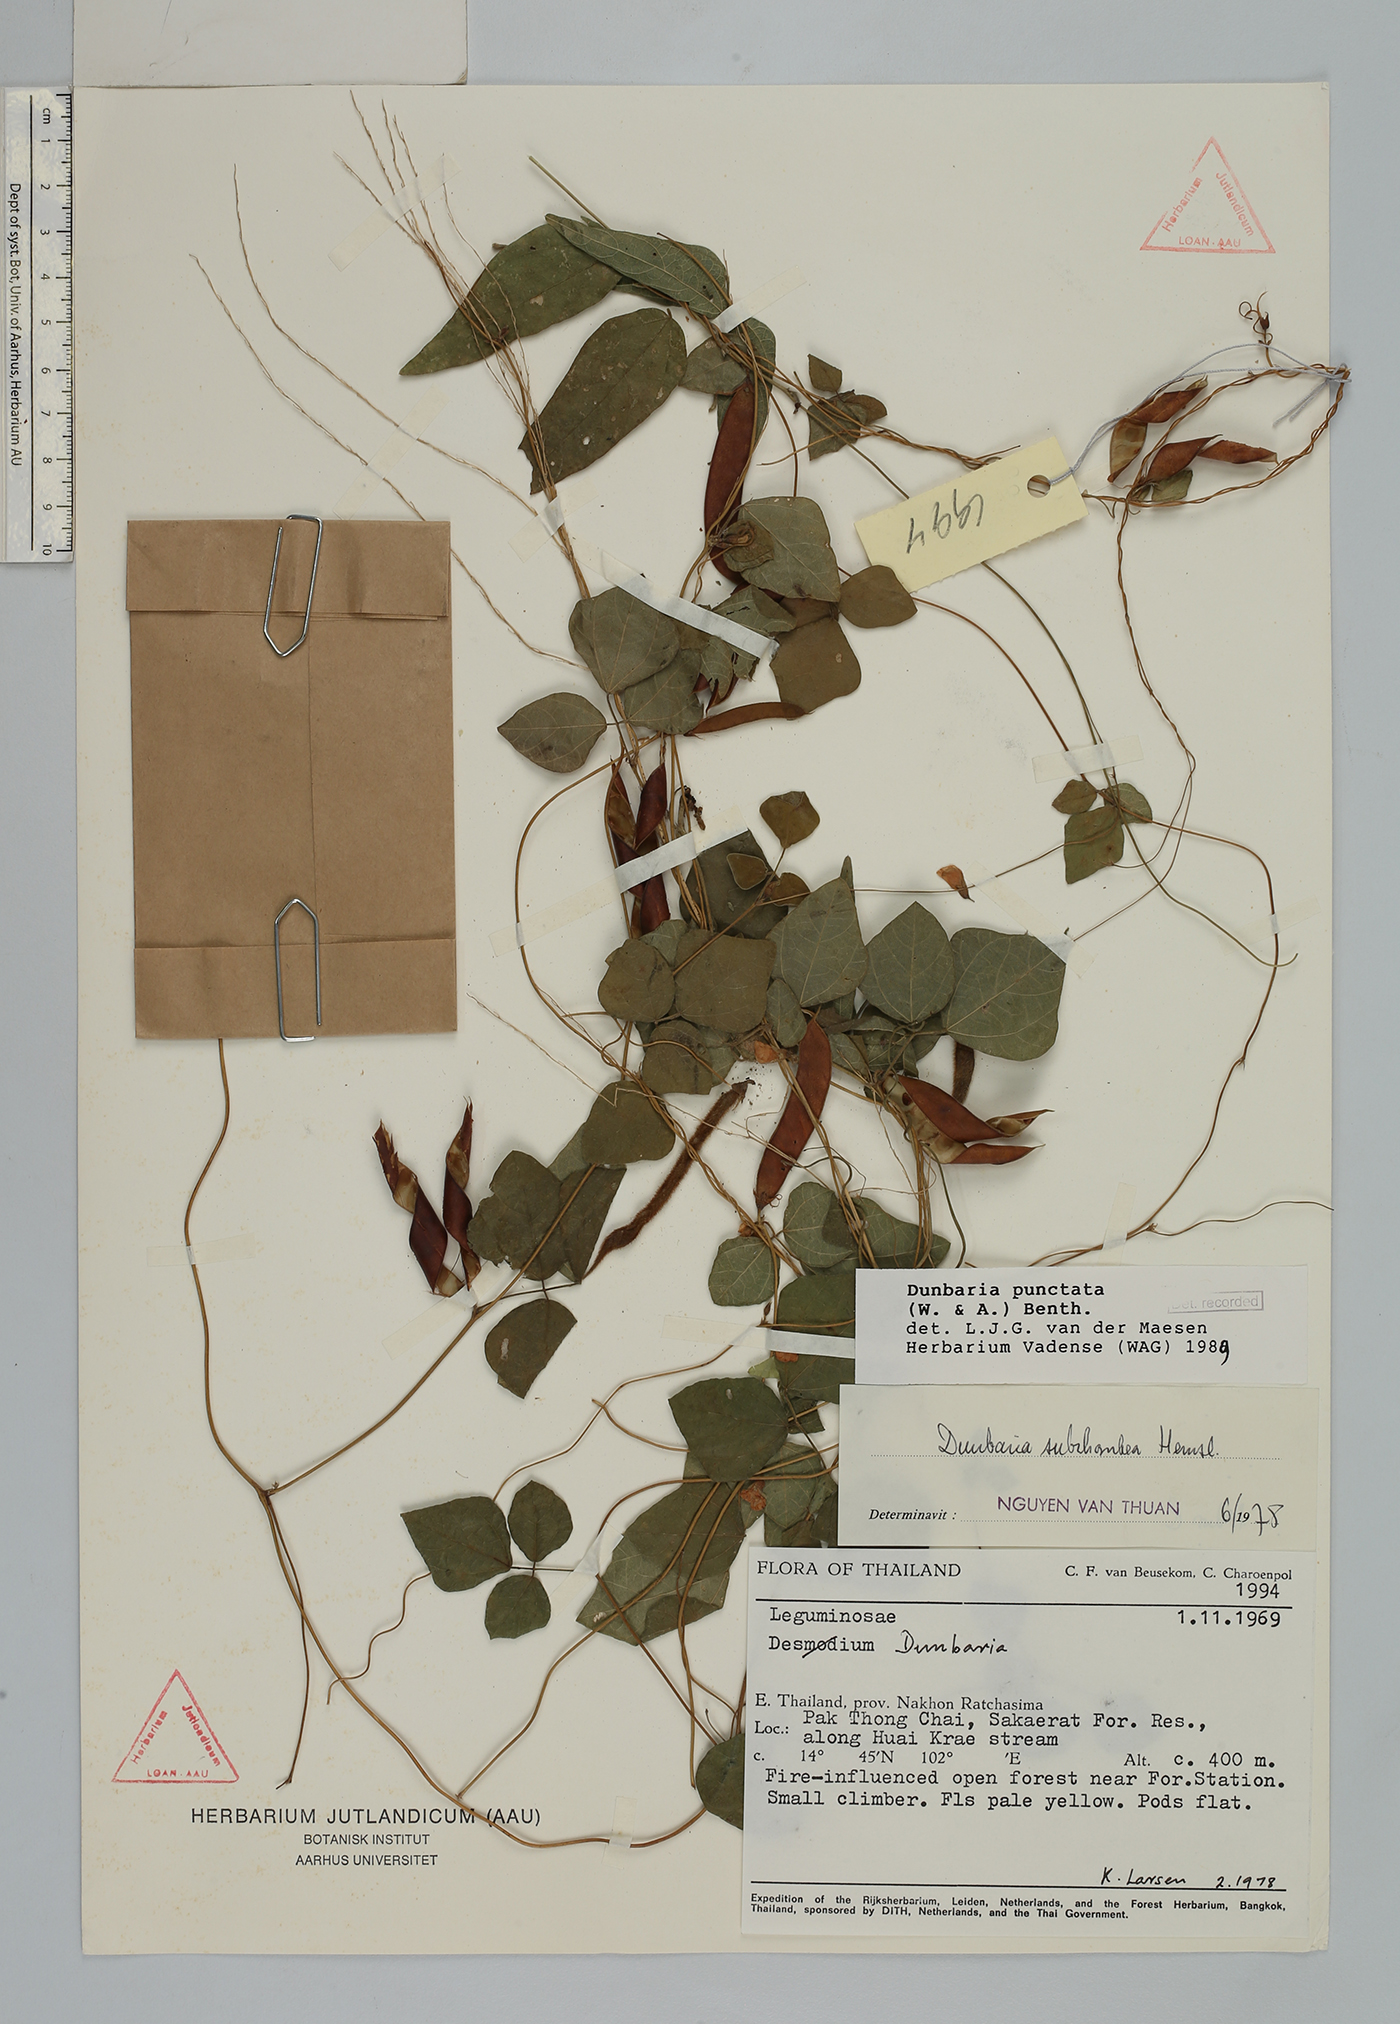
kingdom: Plantae
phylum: Tracheophyta
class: Magnoliopsida
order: Fabales
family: Fabaceae
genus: Dunbaria
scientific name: Dunbaria punctata
